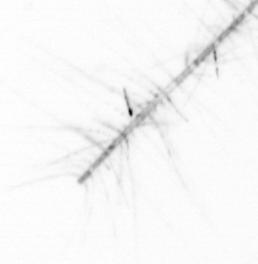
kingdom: Chromista
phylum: Ochrophyta
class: Bacillariophyceae
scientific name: Bacillariophyceae
